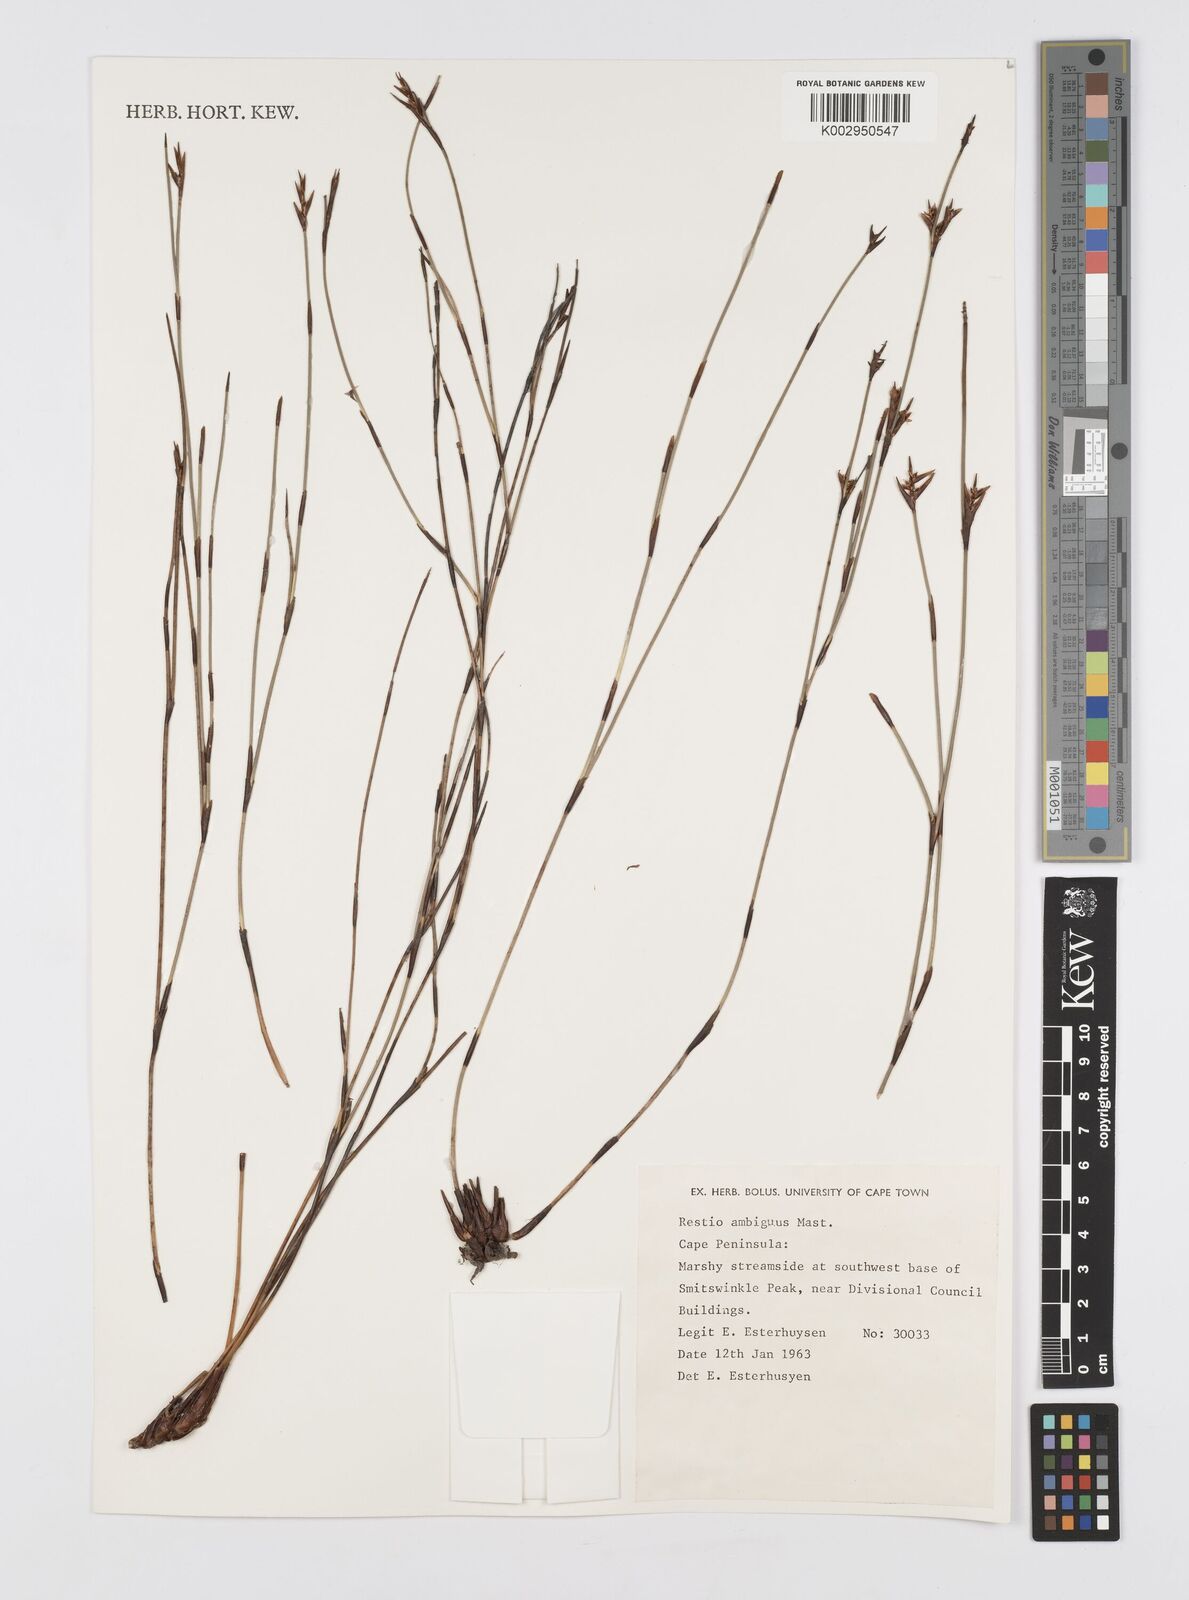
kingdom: Plantae
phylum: Tracheophyta
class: Liliopsida
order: Poales
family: Restionaceae
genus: Soroveta
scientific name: Soroveta ambigua
